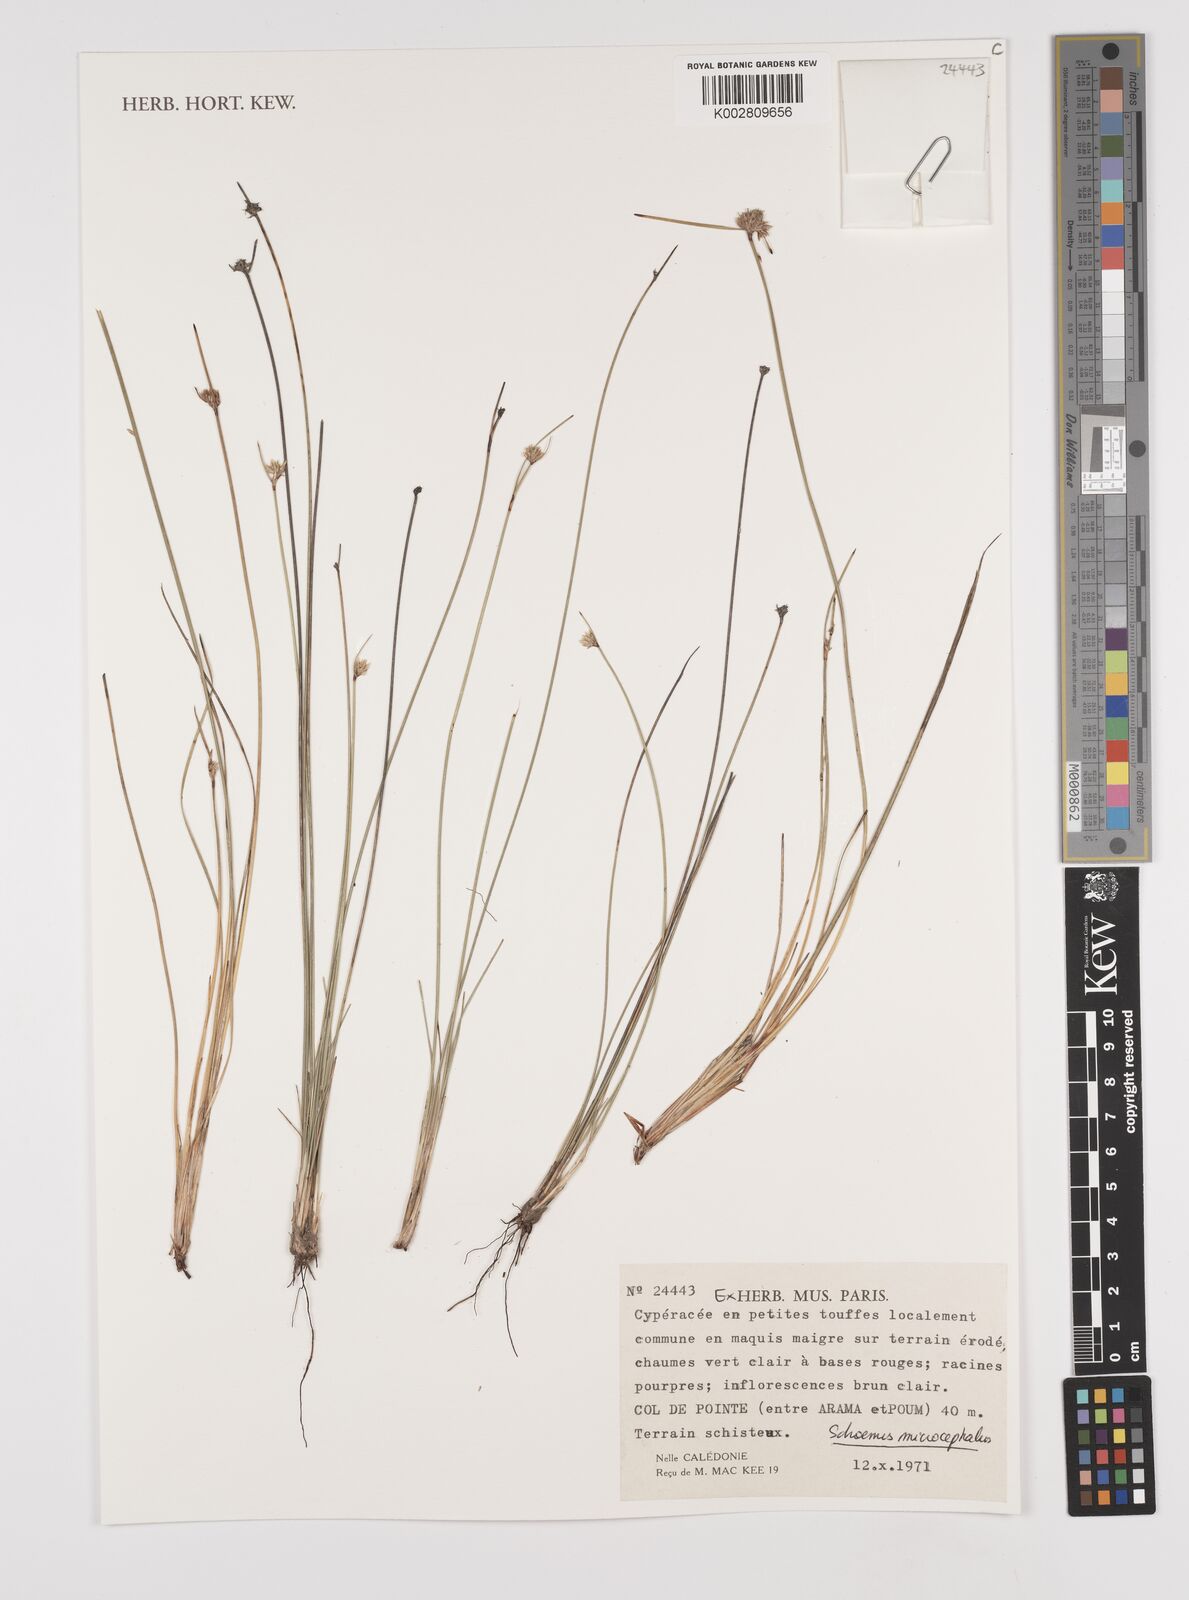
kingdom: Plantae
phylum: Tracheophyta
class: Liliopsida
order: Poales
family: Cyperaceae
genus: Schoenus
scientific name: Schoenus microcephalus
